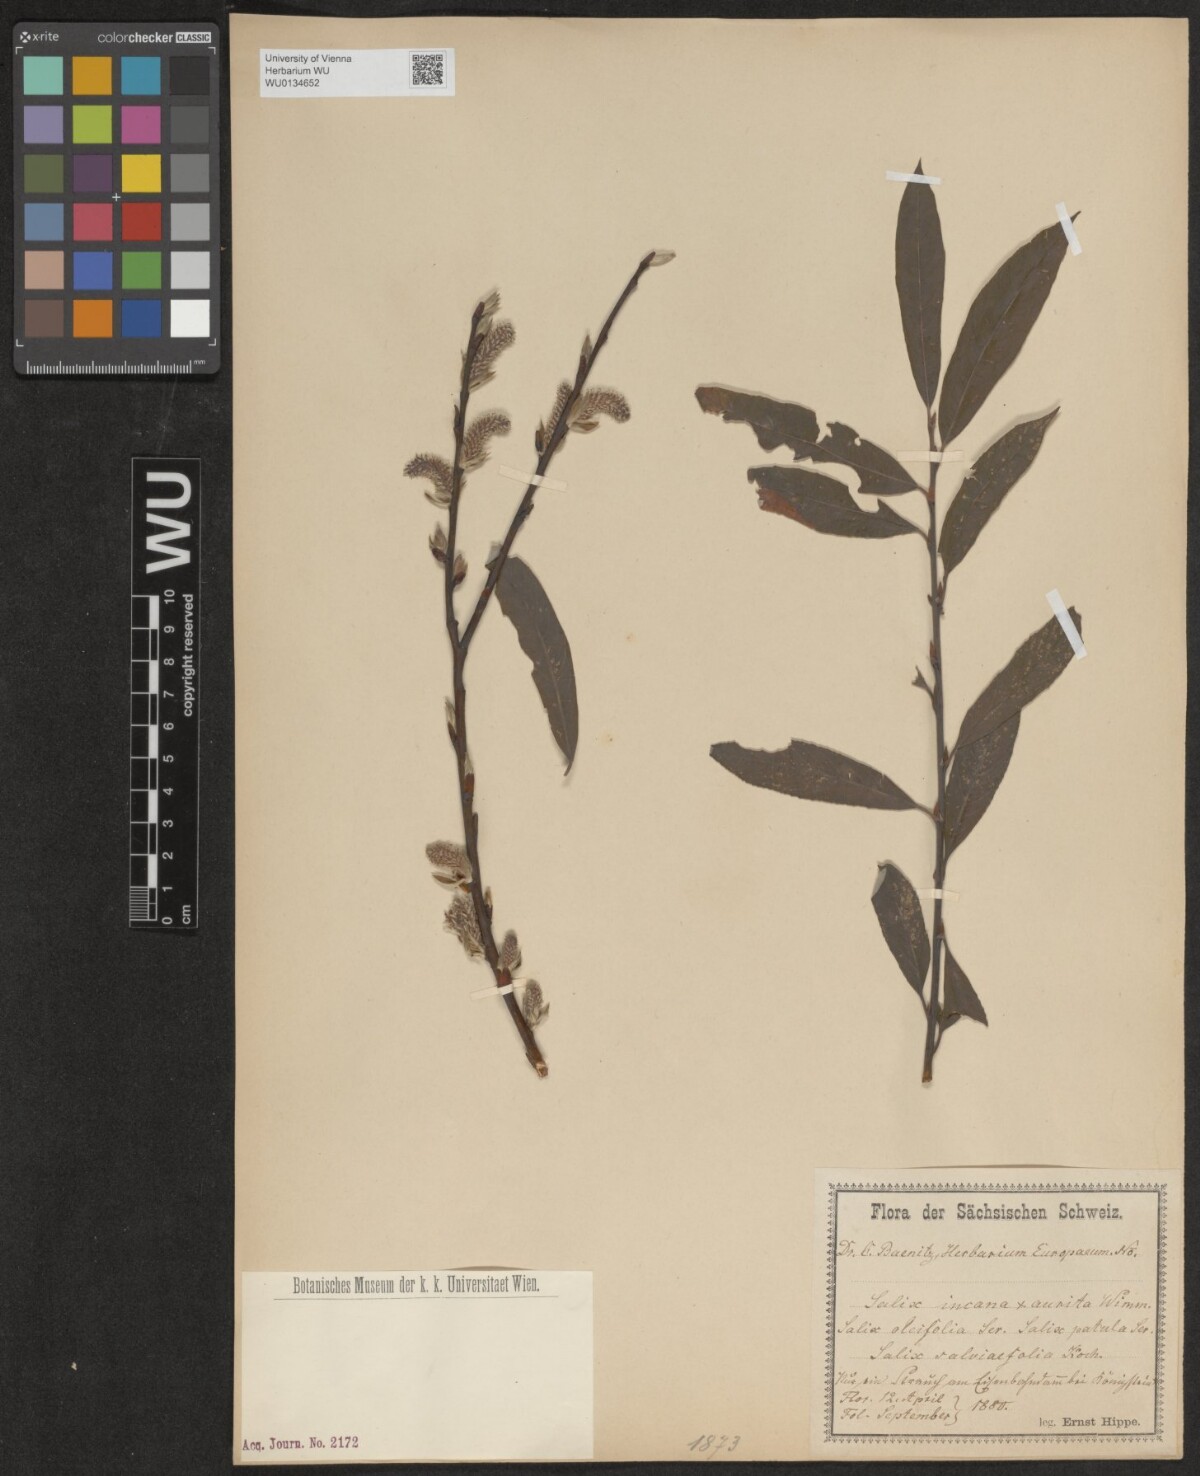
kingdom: Plantae
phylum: Tracheophyta
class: Magnoliopsida
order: Malpighiales
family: Salicaceae
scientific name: Salicaceae
